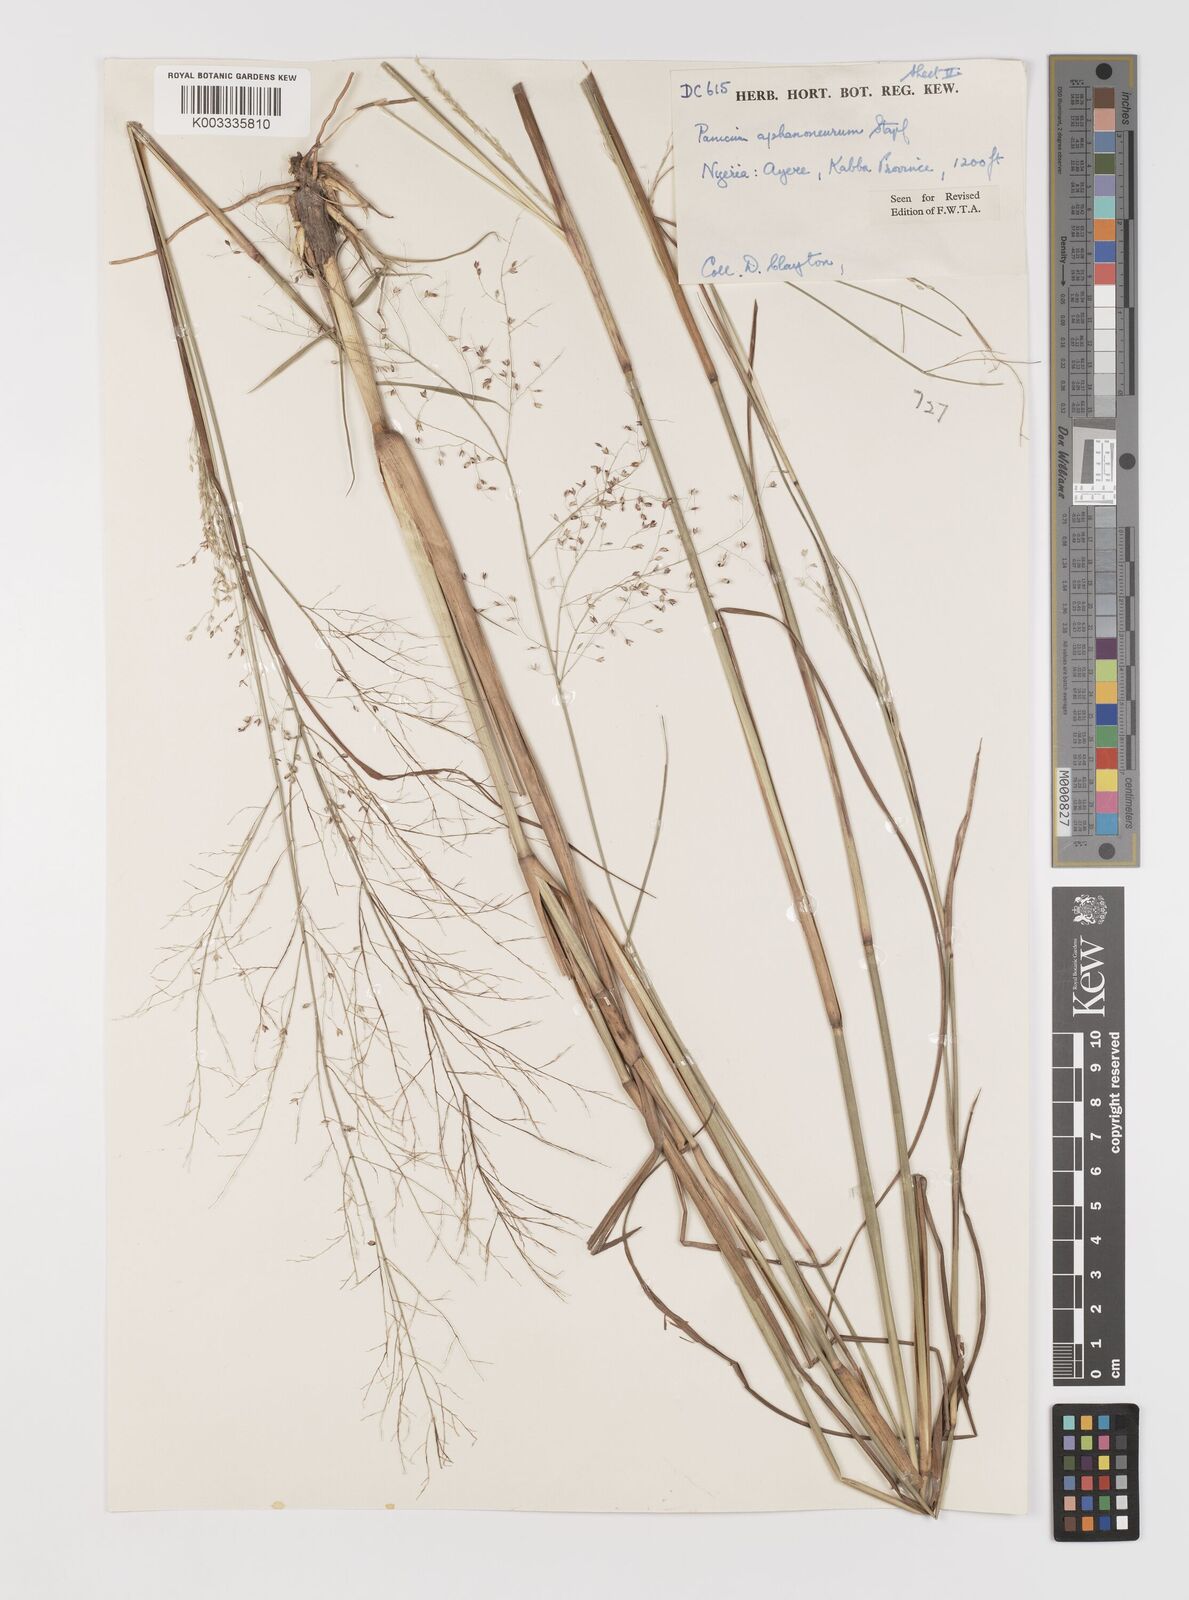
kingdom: Plantae
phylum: Tracheophyta
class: Liliopsida
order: Poales
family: Poaceae
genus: Panicum
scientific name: Panicum fluviicola
